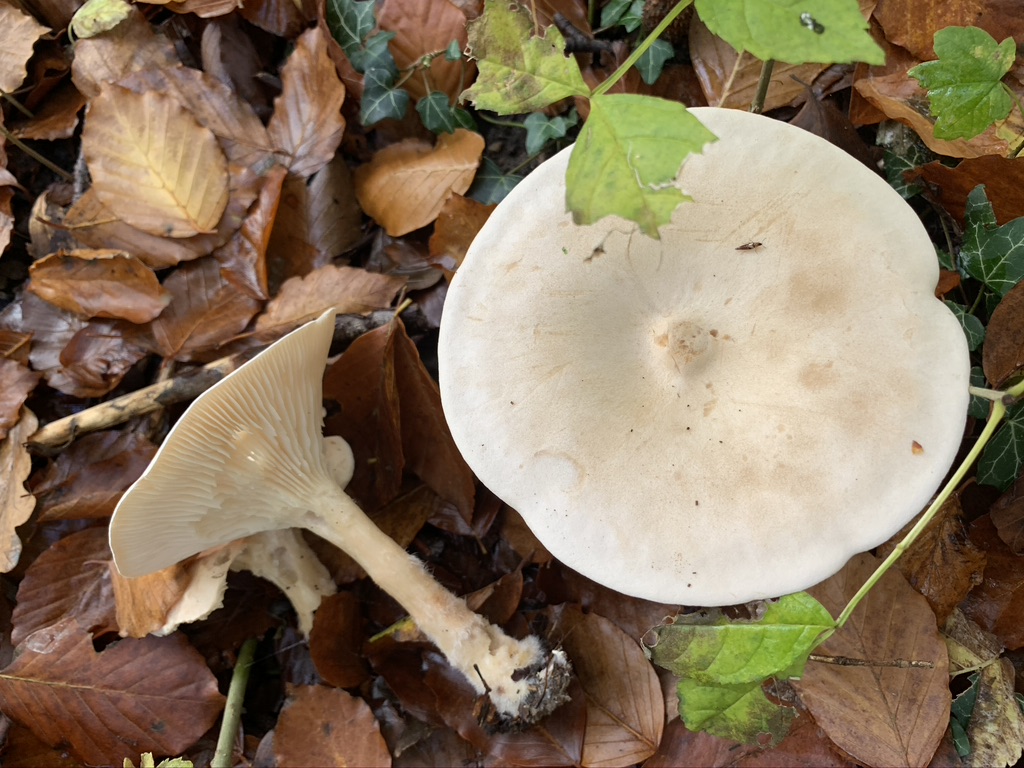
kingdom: Fungi
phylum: Basidiomycota
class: Agaricomycetes
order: Agaricales
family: Tricholomataceae
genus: Infundibulicybe
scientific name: Infundibulicybe geotropa
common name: stor tragthat
